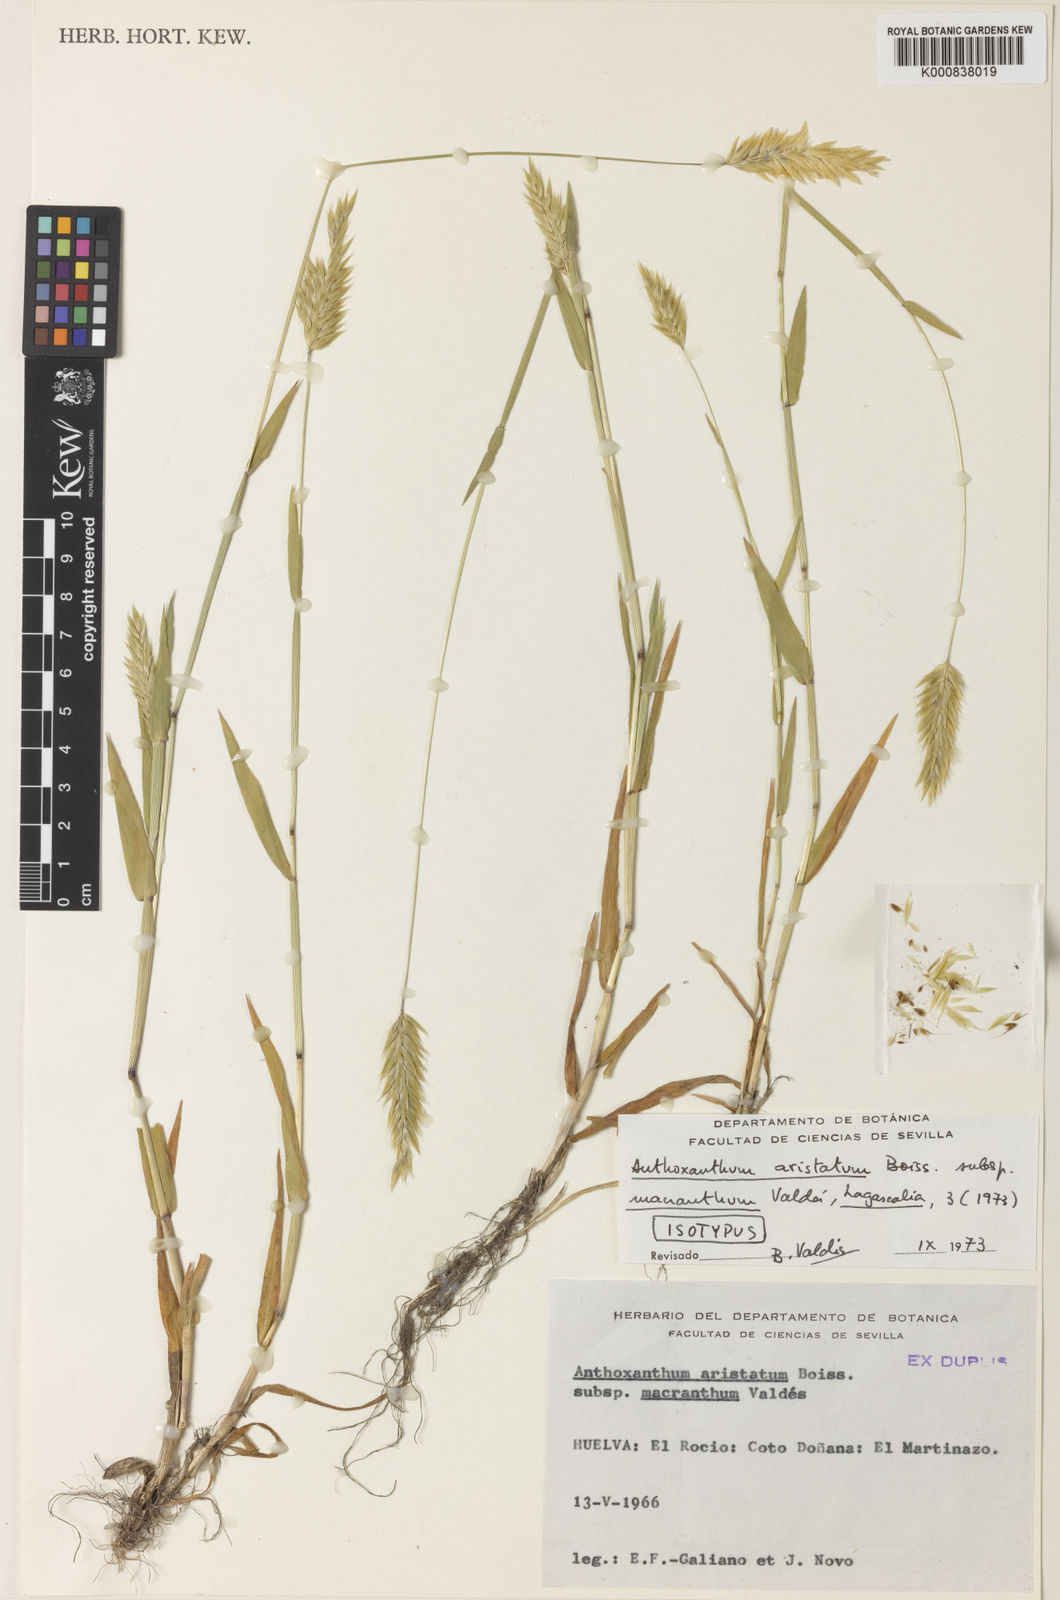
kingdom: Plantae
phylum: Tracheophyta
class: Liliopsida
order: Poales
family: Poaceae
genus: Anthoxanthum
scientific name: Anthoxanthum aristatum
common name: Annual vernal-grass
